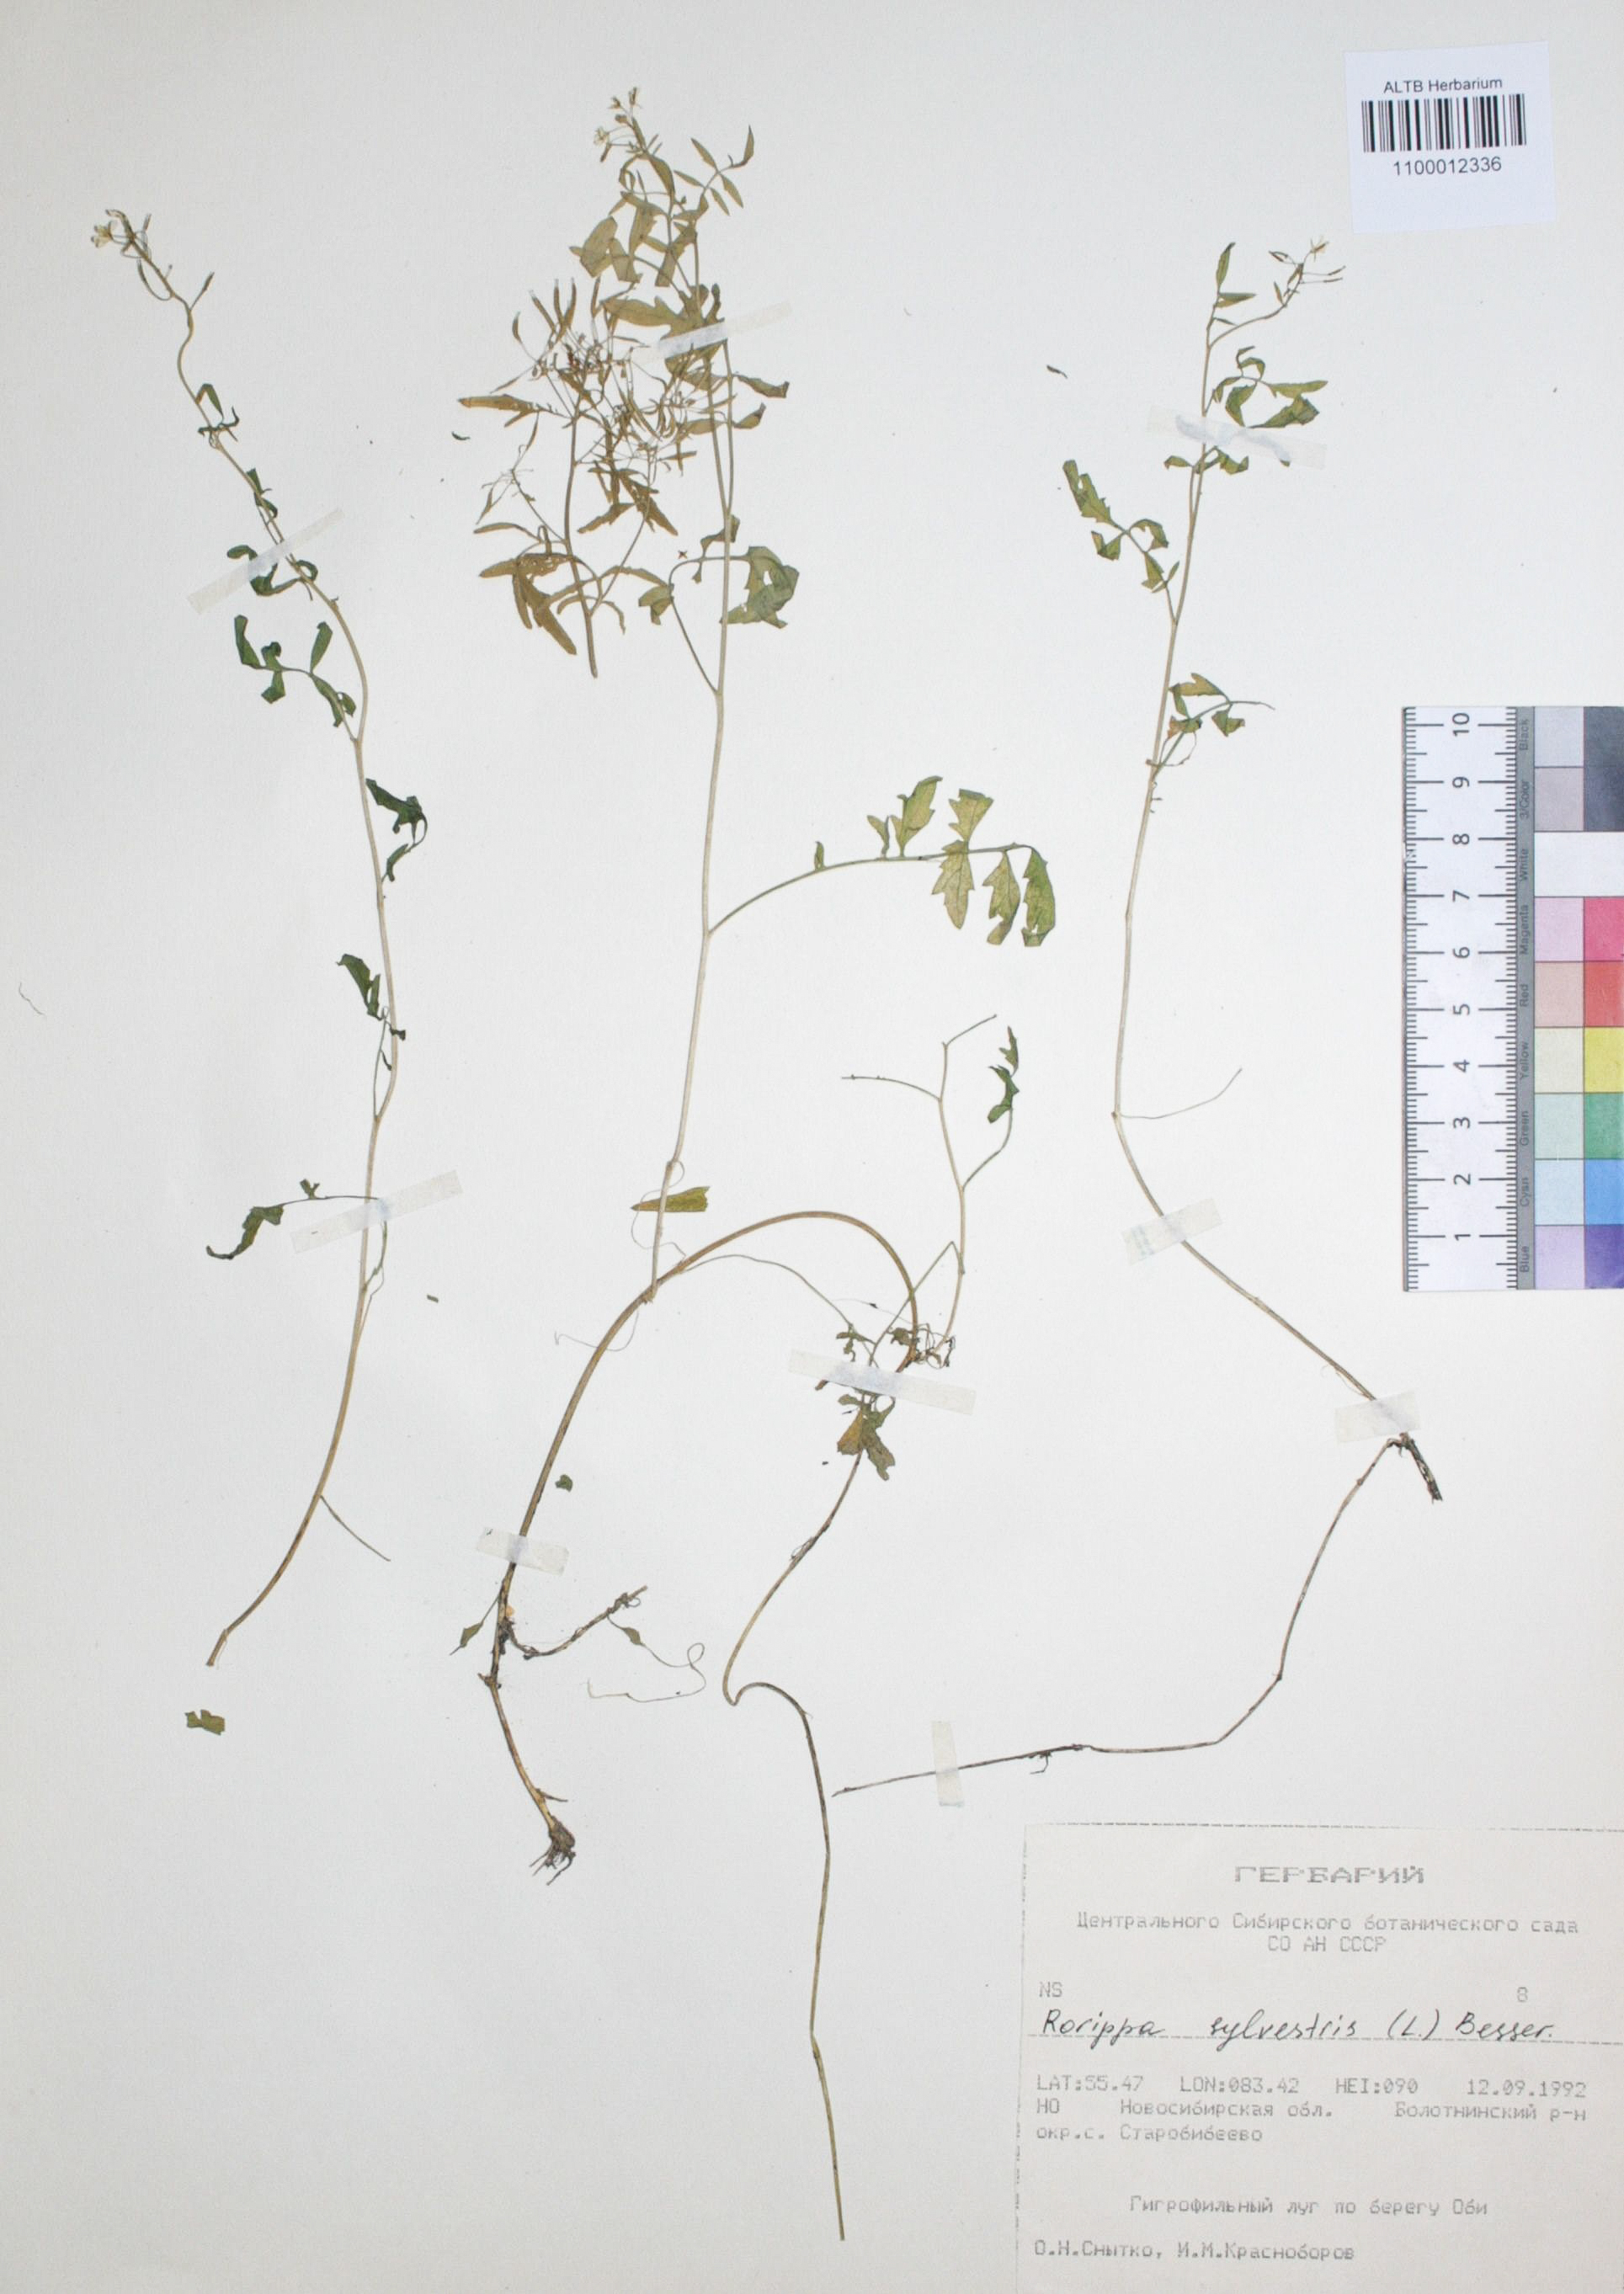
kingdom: Plantae
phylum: Tracheophyta
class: Magnoliopsida
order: Brassicales
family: Brassicaceae
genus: Rorippa
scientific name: Rorippa sylvestris
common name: Creeping yellowcress
